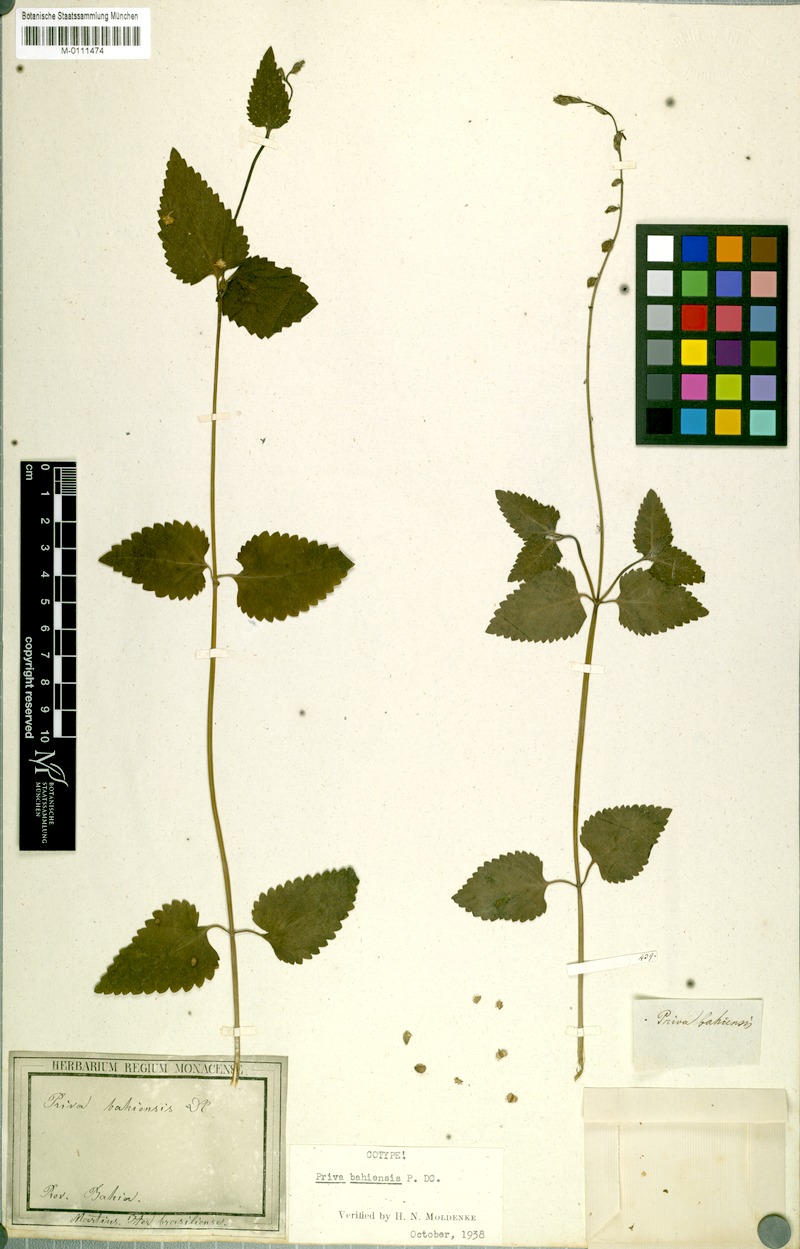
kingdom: Plantae
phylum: Tracheophyta
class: Magnoliopsida
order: Lamiales
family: Verbenaceae
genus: Priva
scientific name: Priva bahiensis
